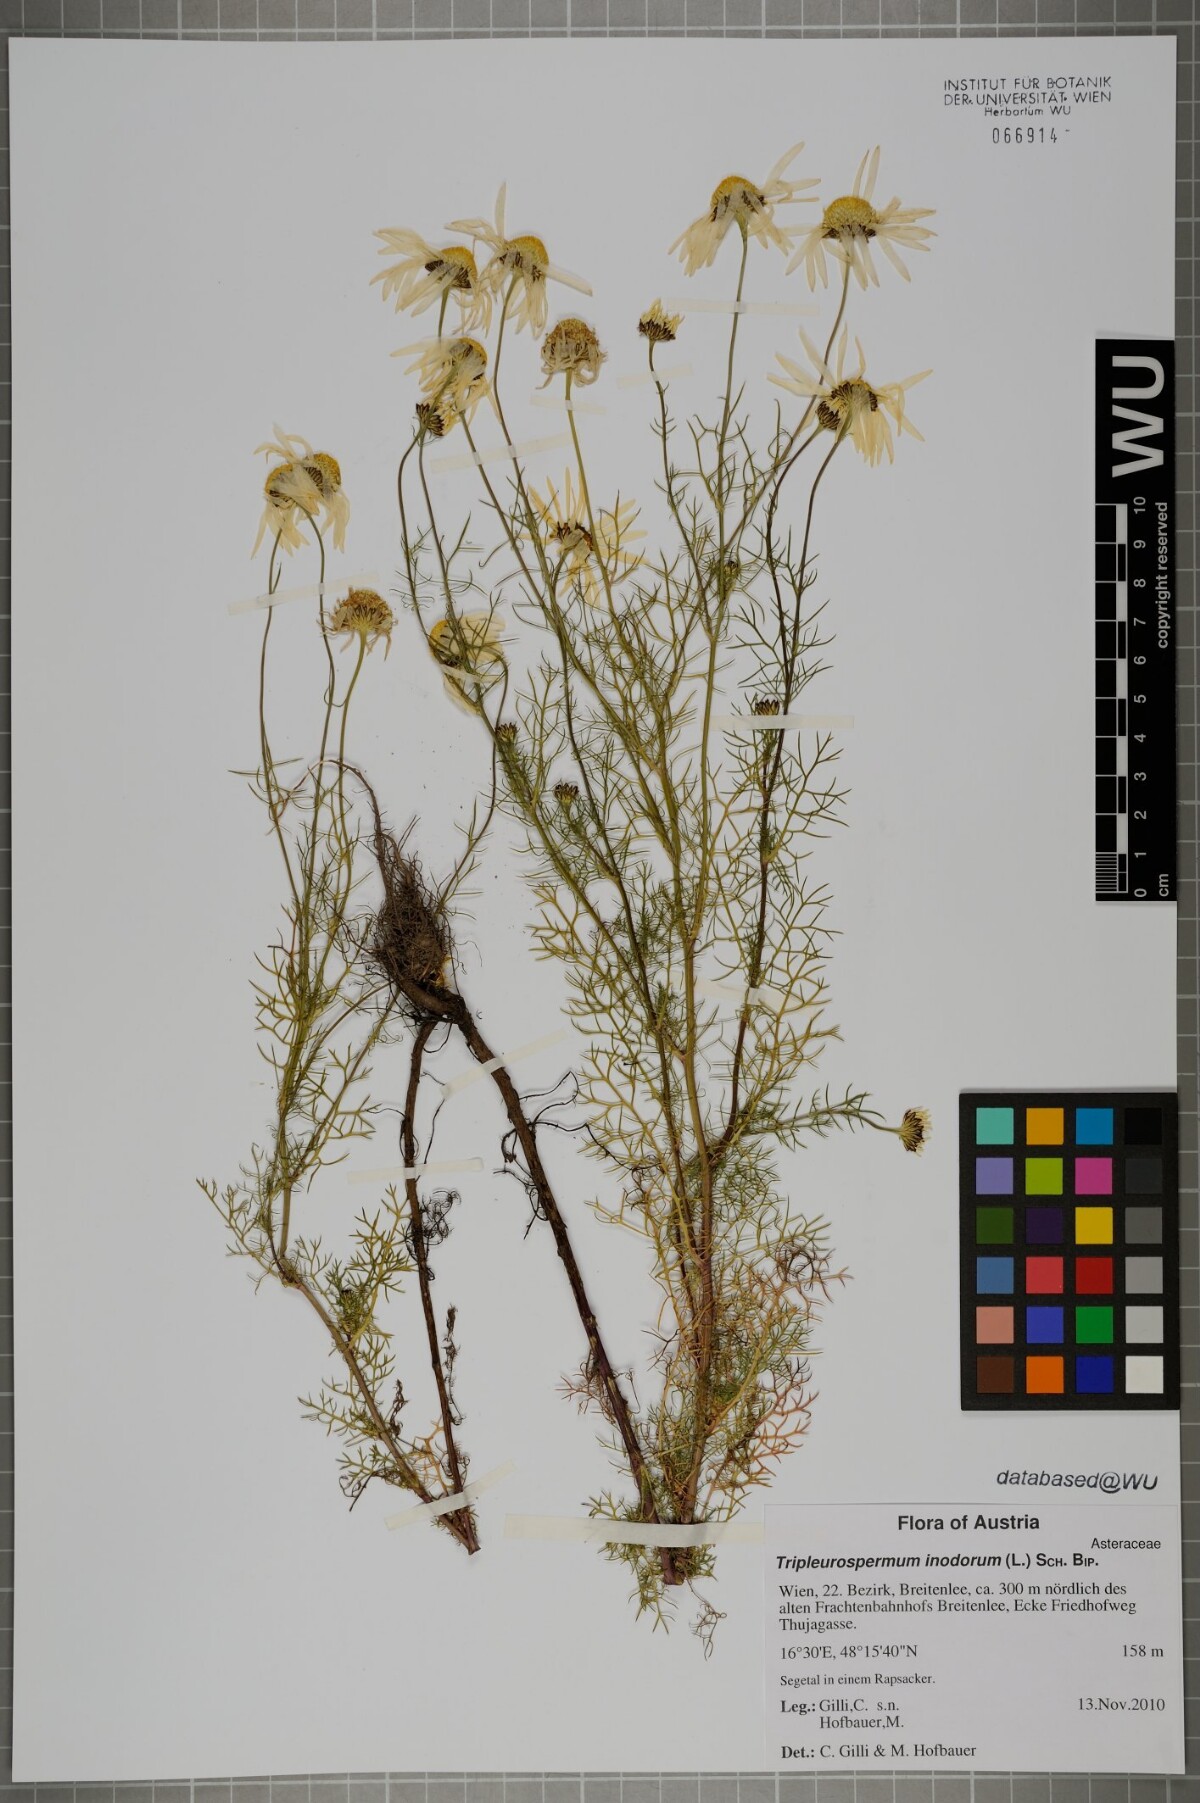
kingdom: Plantae
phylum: Tracheophyta
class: Magnoliopsida
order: Asterales
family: Asteraceae
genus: Tripleurospermum
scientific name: Tripleurospermum inodorum
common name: Scentless mayweed
